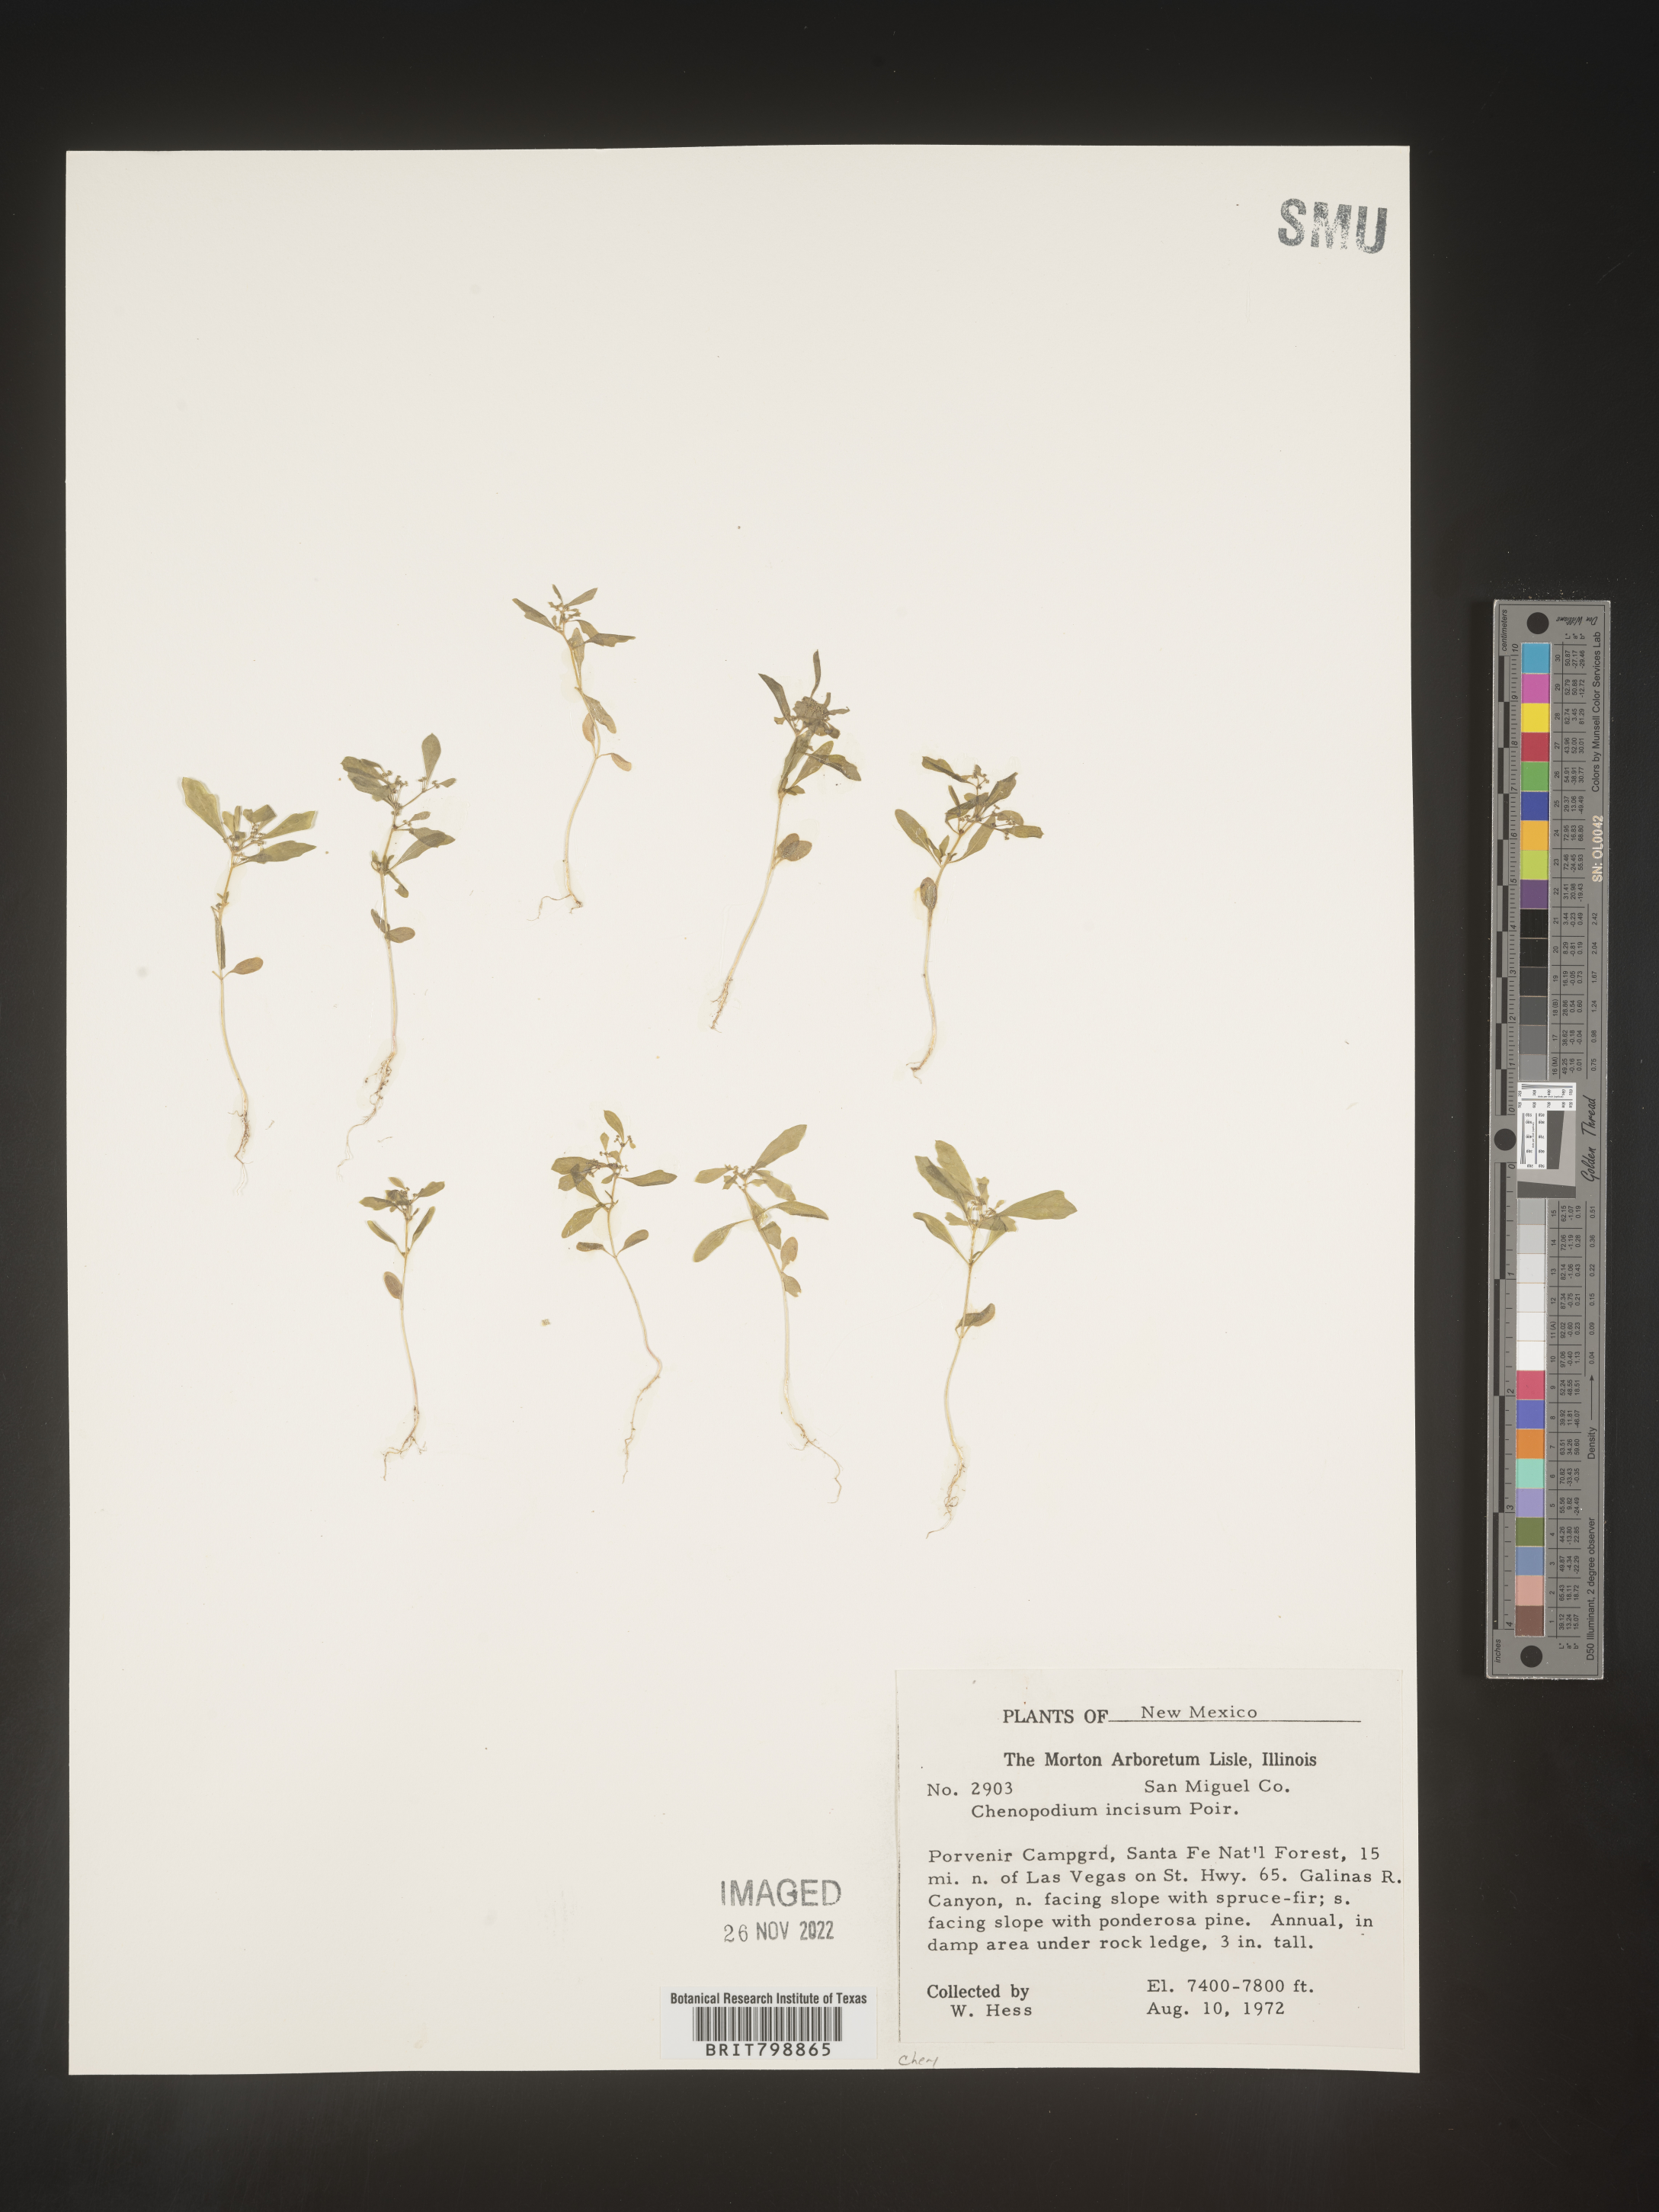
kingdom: Plantae
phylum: Tracheophyta
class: Magnoliopsida
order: Caryophyllales
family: Amaranthaceae
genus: Dysphania
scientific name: Dysphania graveolens
